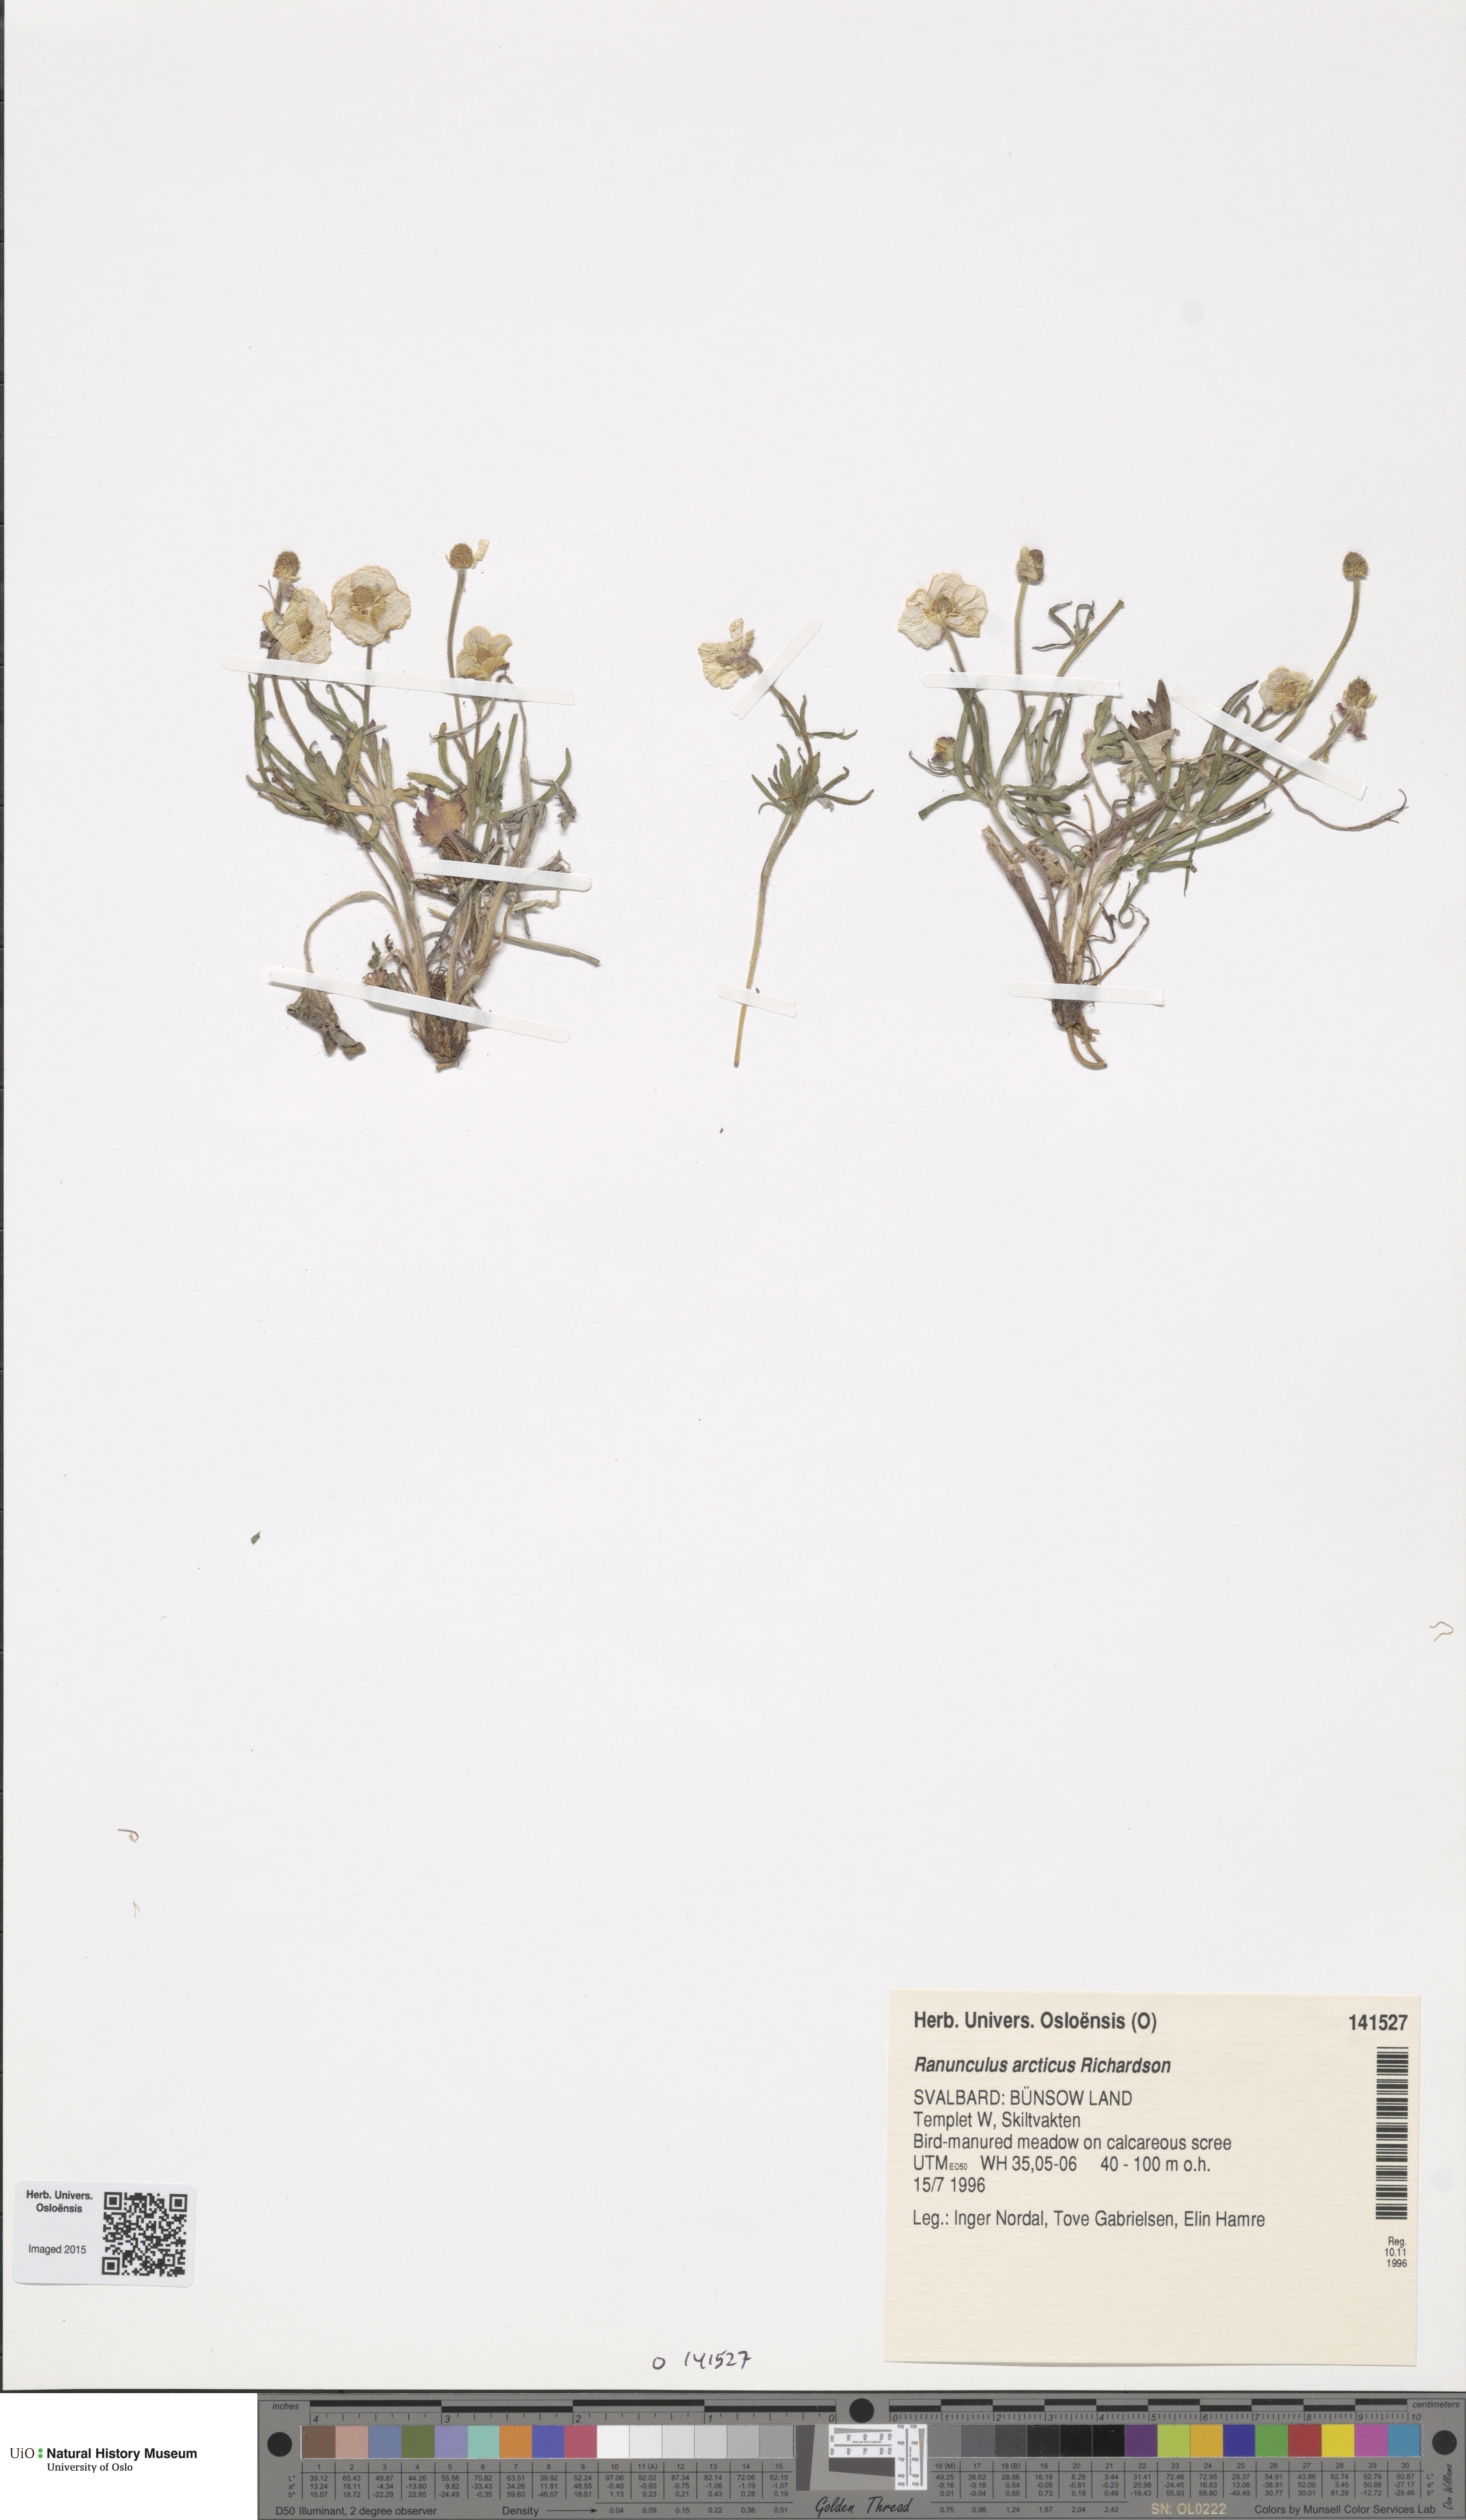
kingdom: Plantae
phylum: Tracheophyta
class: Magnoliopsida
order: Ranunculales
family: Ranunculaceae
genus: Ranunculus
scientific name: Ranunculus arcticus
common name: Bird's-foot buttercup
